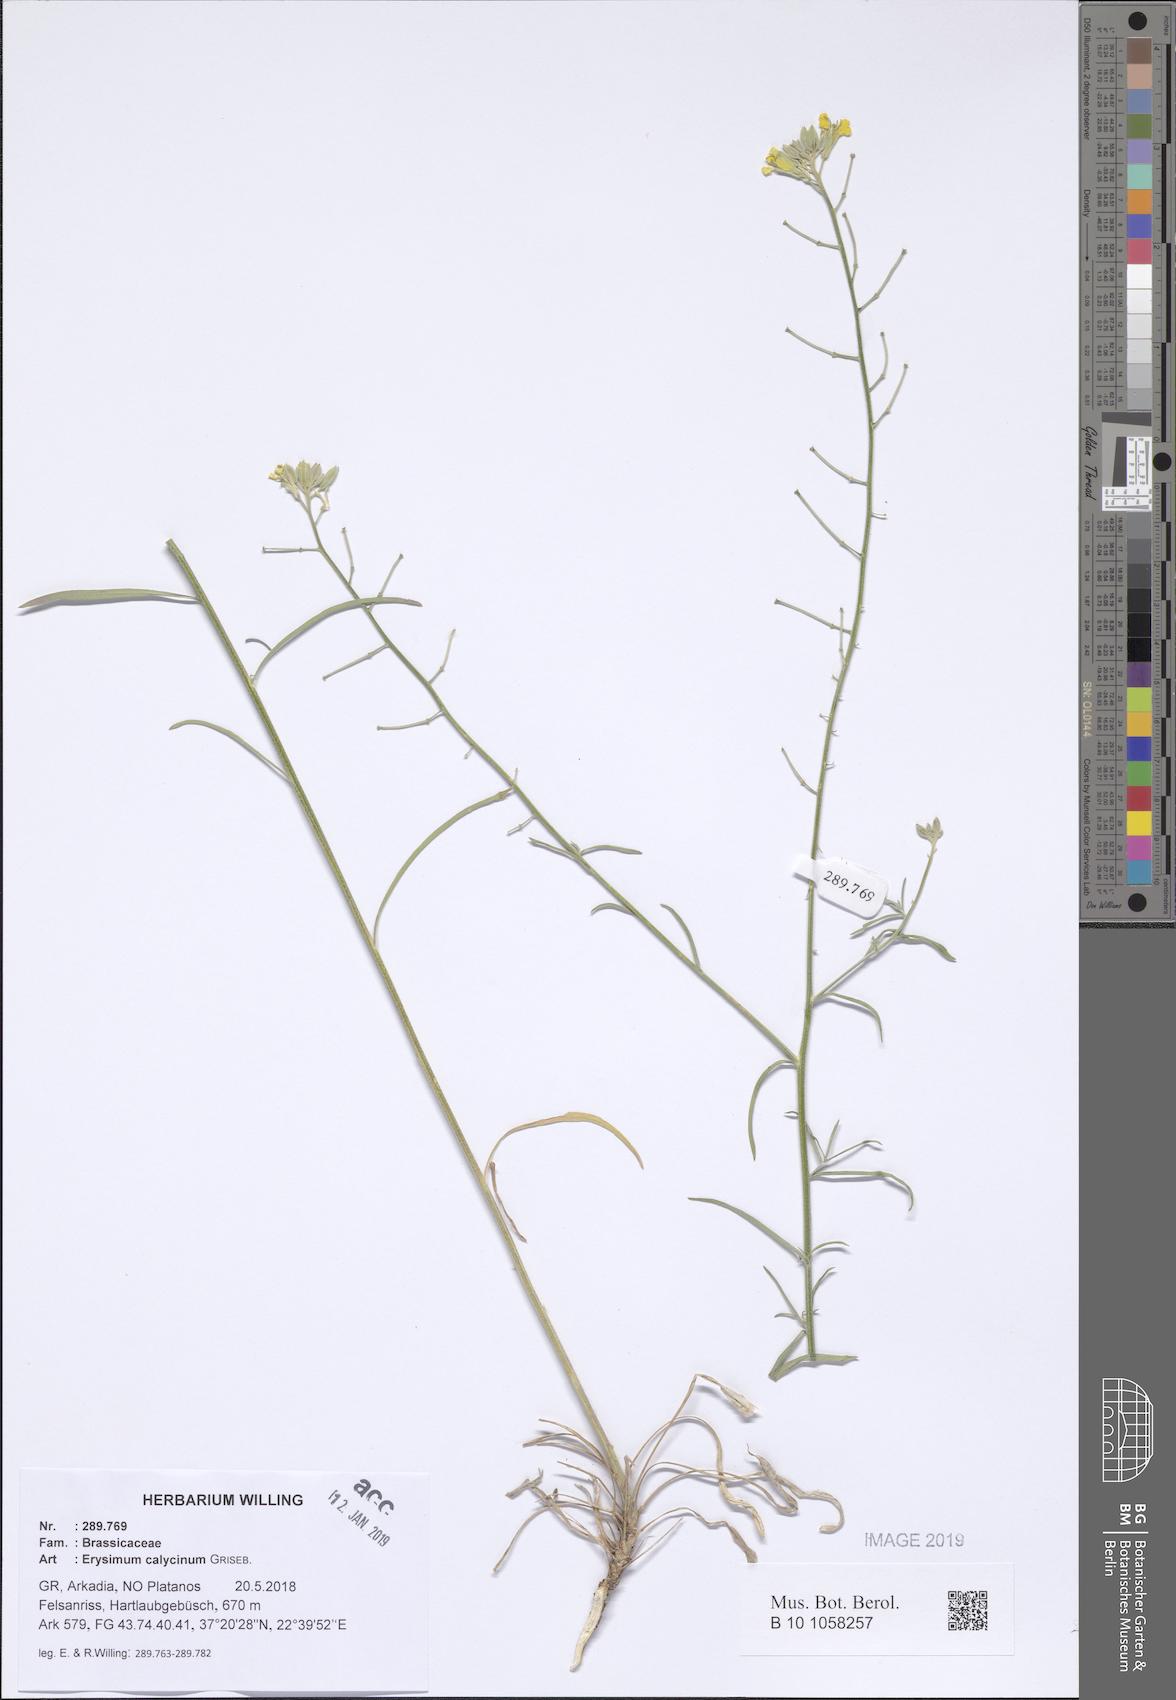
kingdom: Plantae
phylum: Tracheophyta
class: Magnoliopsida
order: Brassicales
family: Brassicaceae
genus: Erysimum
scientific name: Erysimum calycinum
